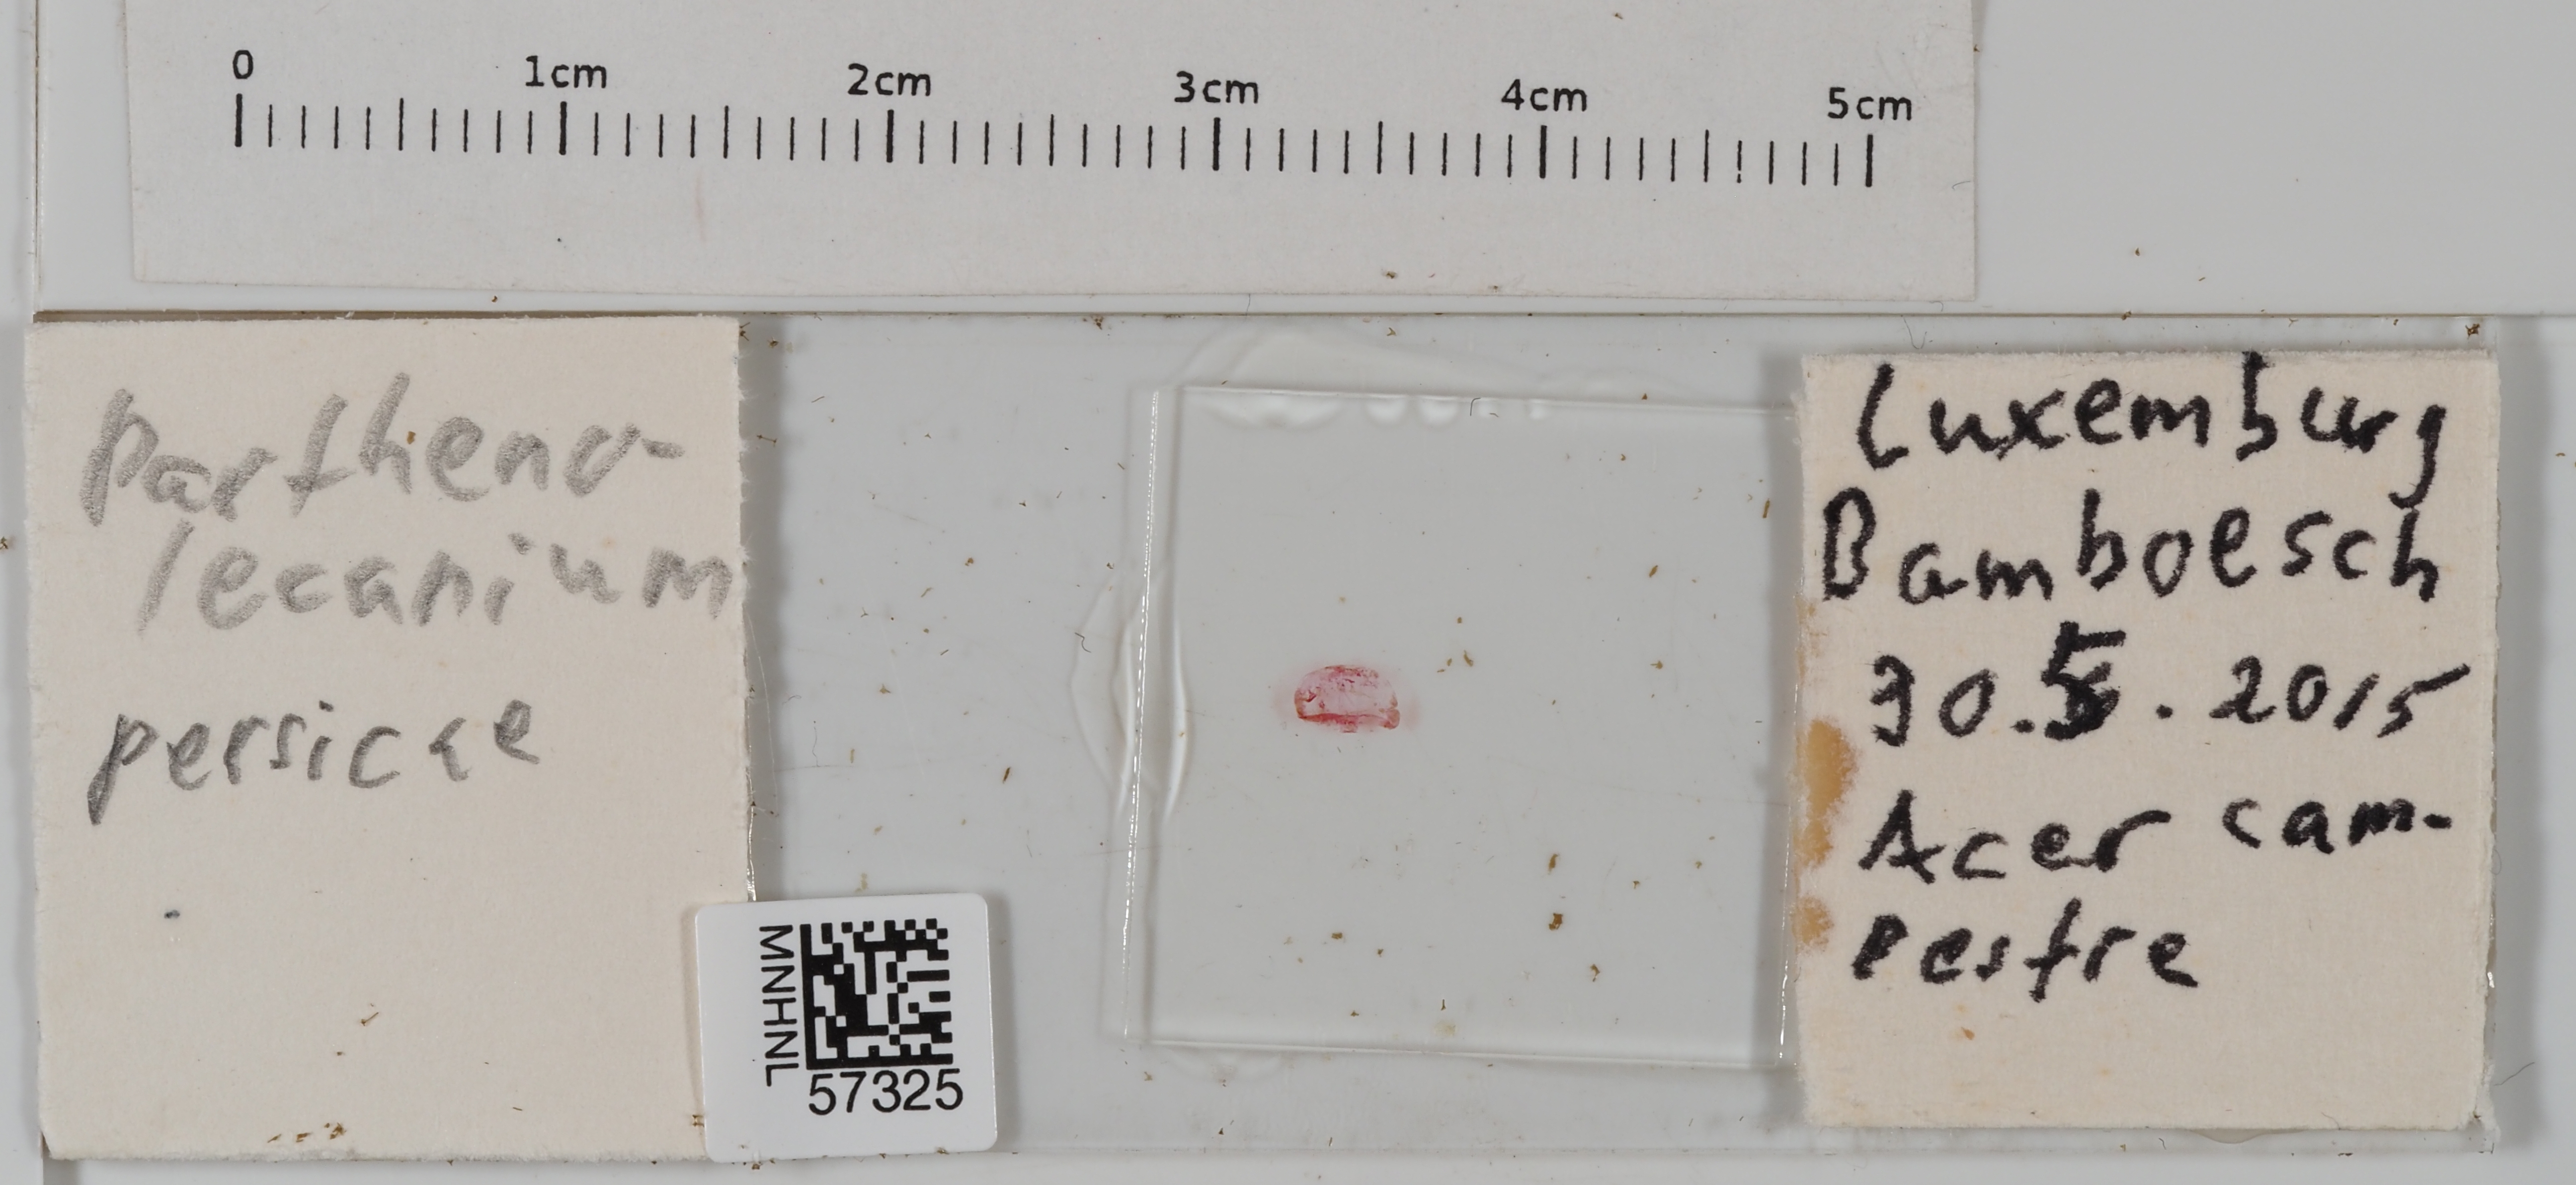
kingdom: Animalia
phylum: Arthropoda
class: Insecta
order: Hemiptera
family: Coccidae
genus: Parthenolecanium
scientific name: Parthenolecanium persicae
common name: Peach scale
